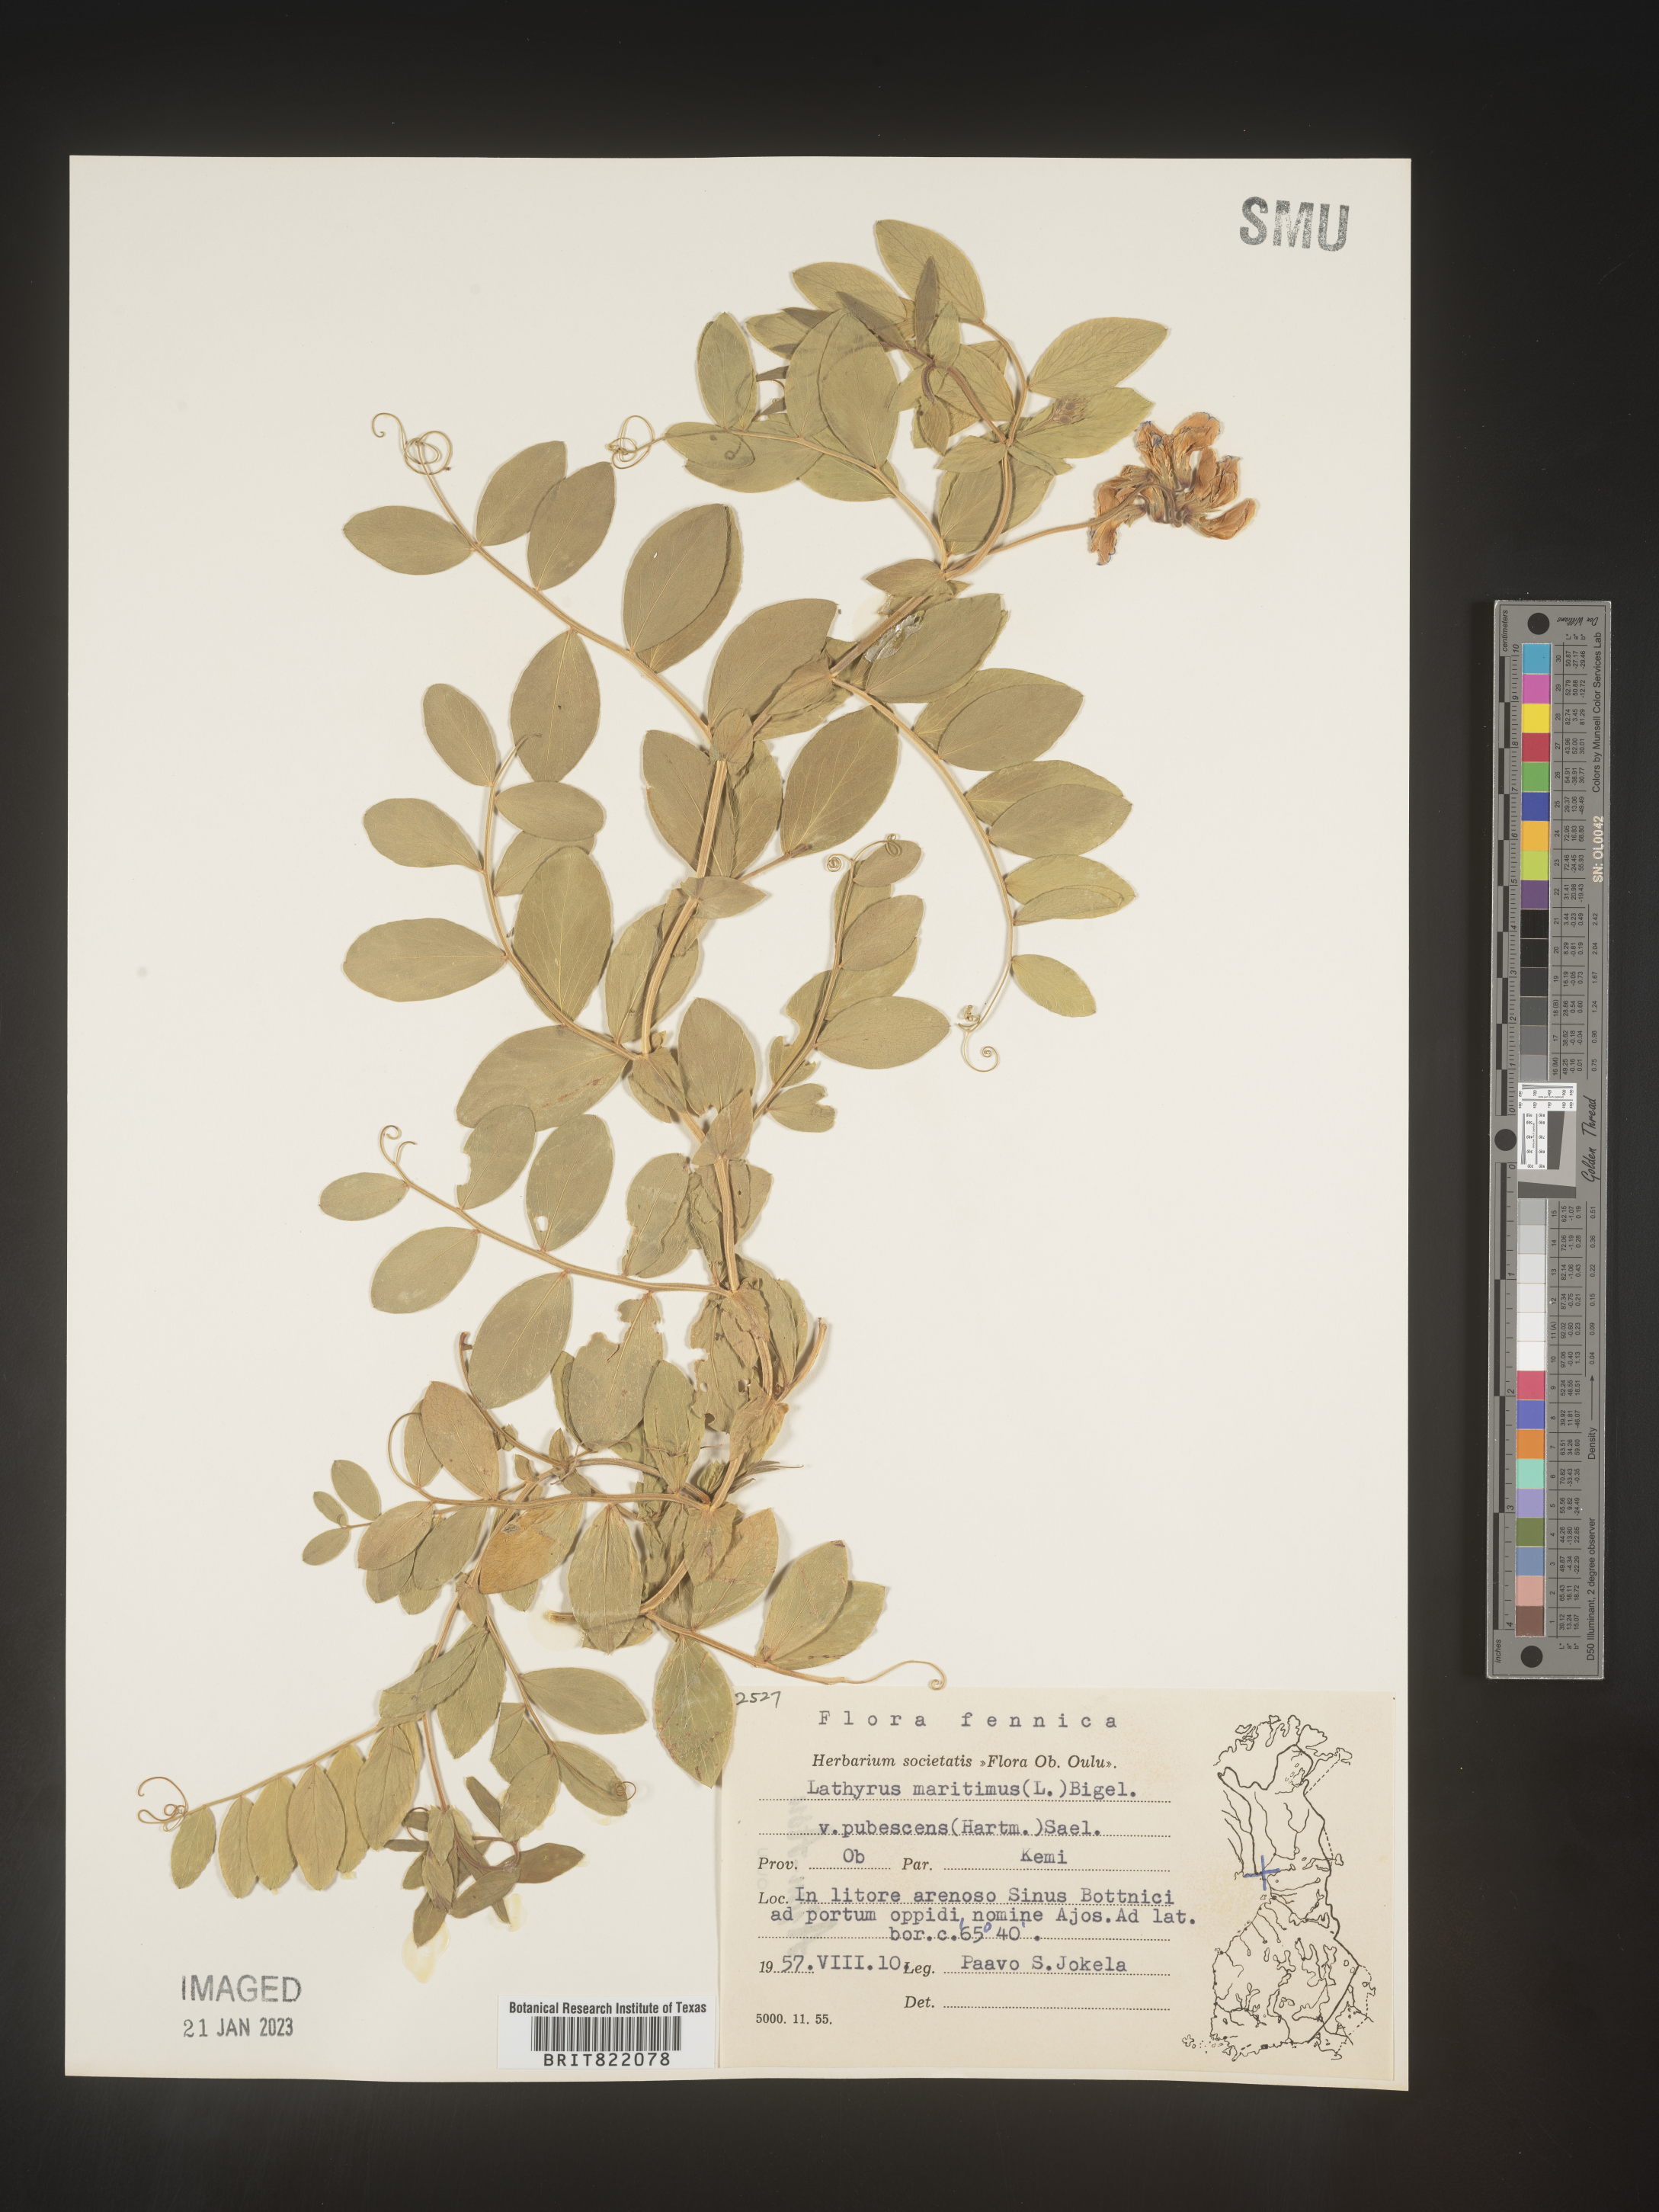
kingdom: Plantae
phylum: Tracheophyta
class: Magnoliopsida
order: Fabales
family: Fabaceae
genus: Lathyrus
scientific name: Lathyrus
